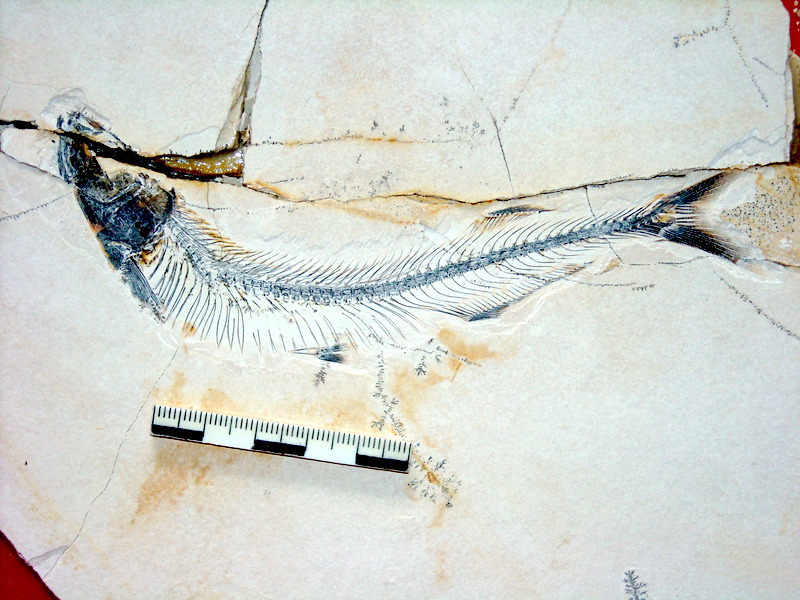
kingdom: Animalia
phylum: Chordata
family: Allothrissopidae
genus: Allothrissops
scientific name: Allothrissops mesogaster
